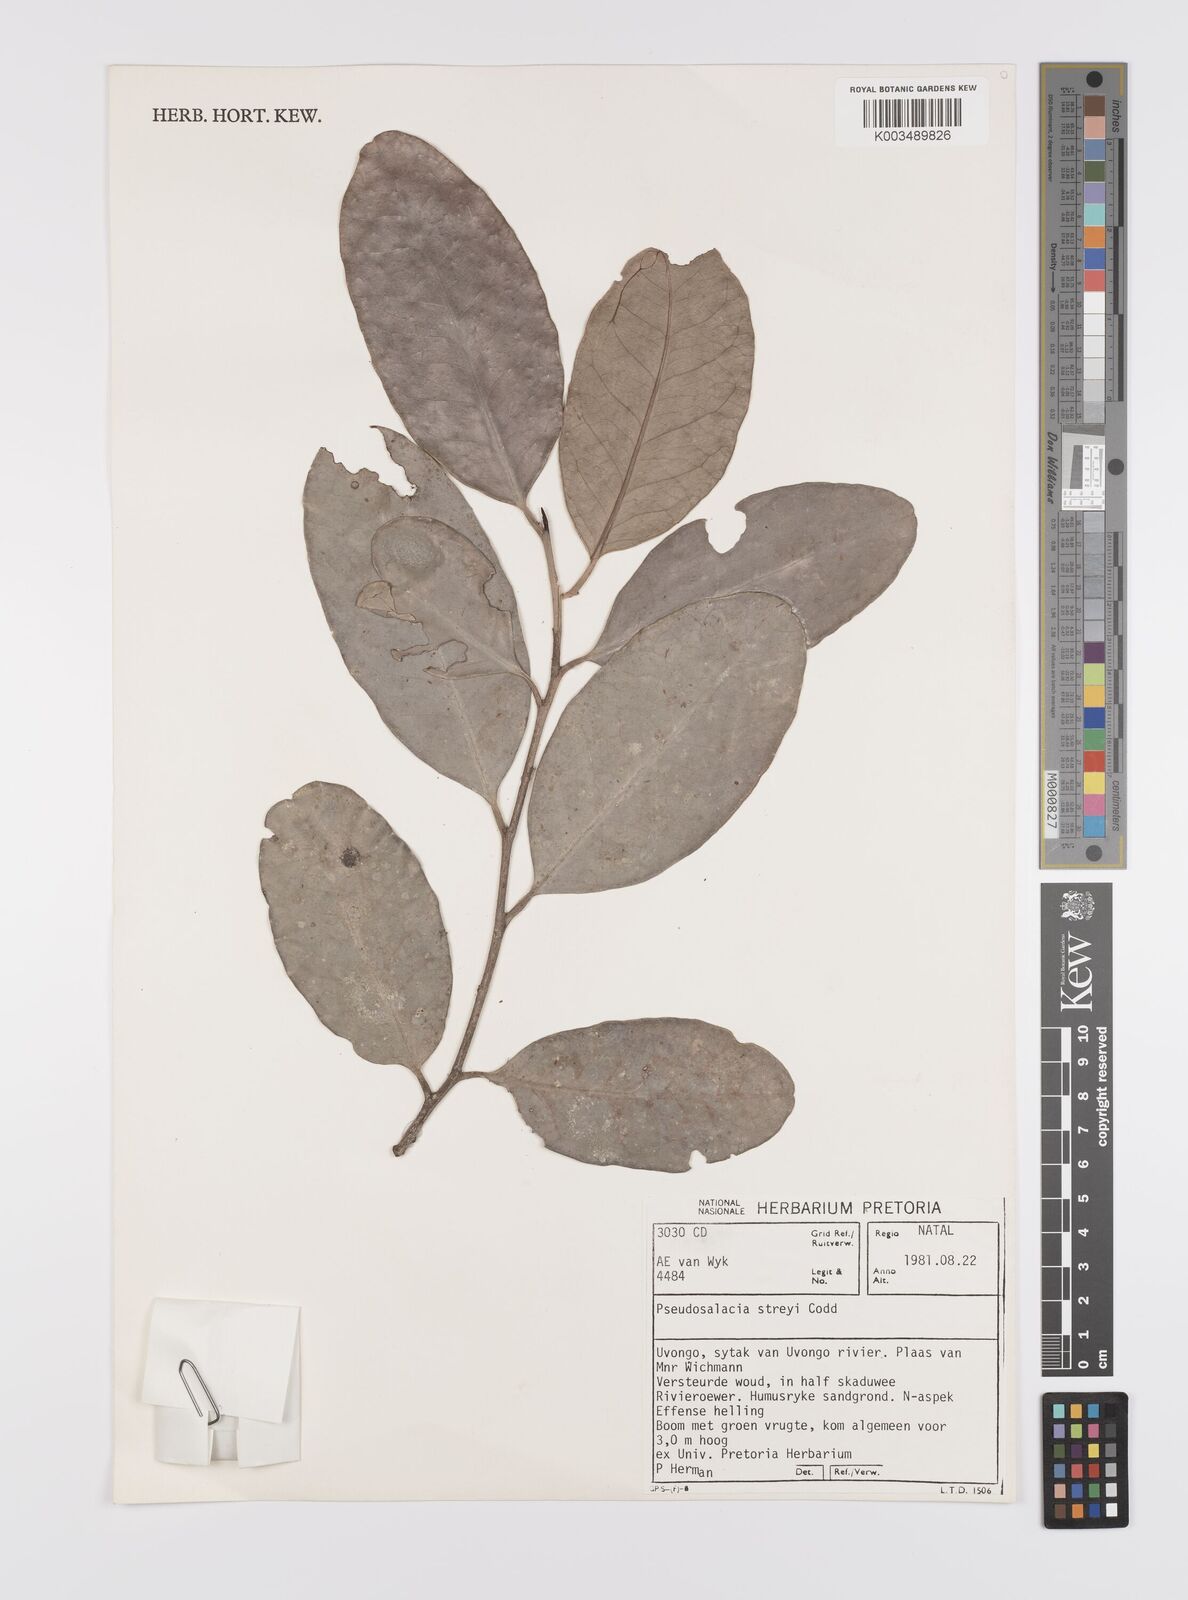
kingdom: Plantae
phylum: Tracheophyta
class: Magnoliopsida
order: Celastrales
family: Celastraceae
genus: Pseudosalacia
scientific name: Pseudosalacia streyi
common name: Bastard lemon
